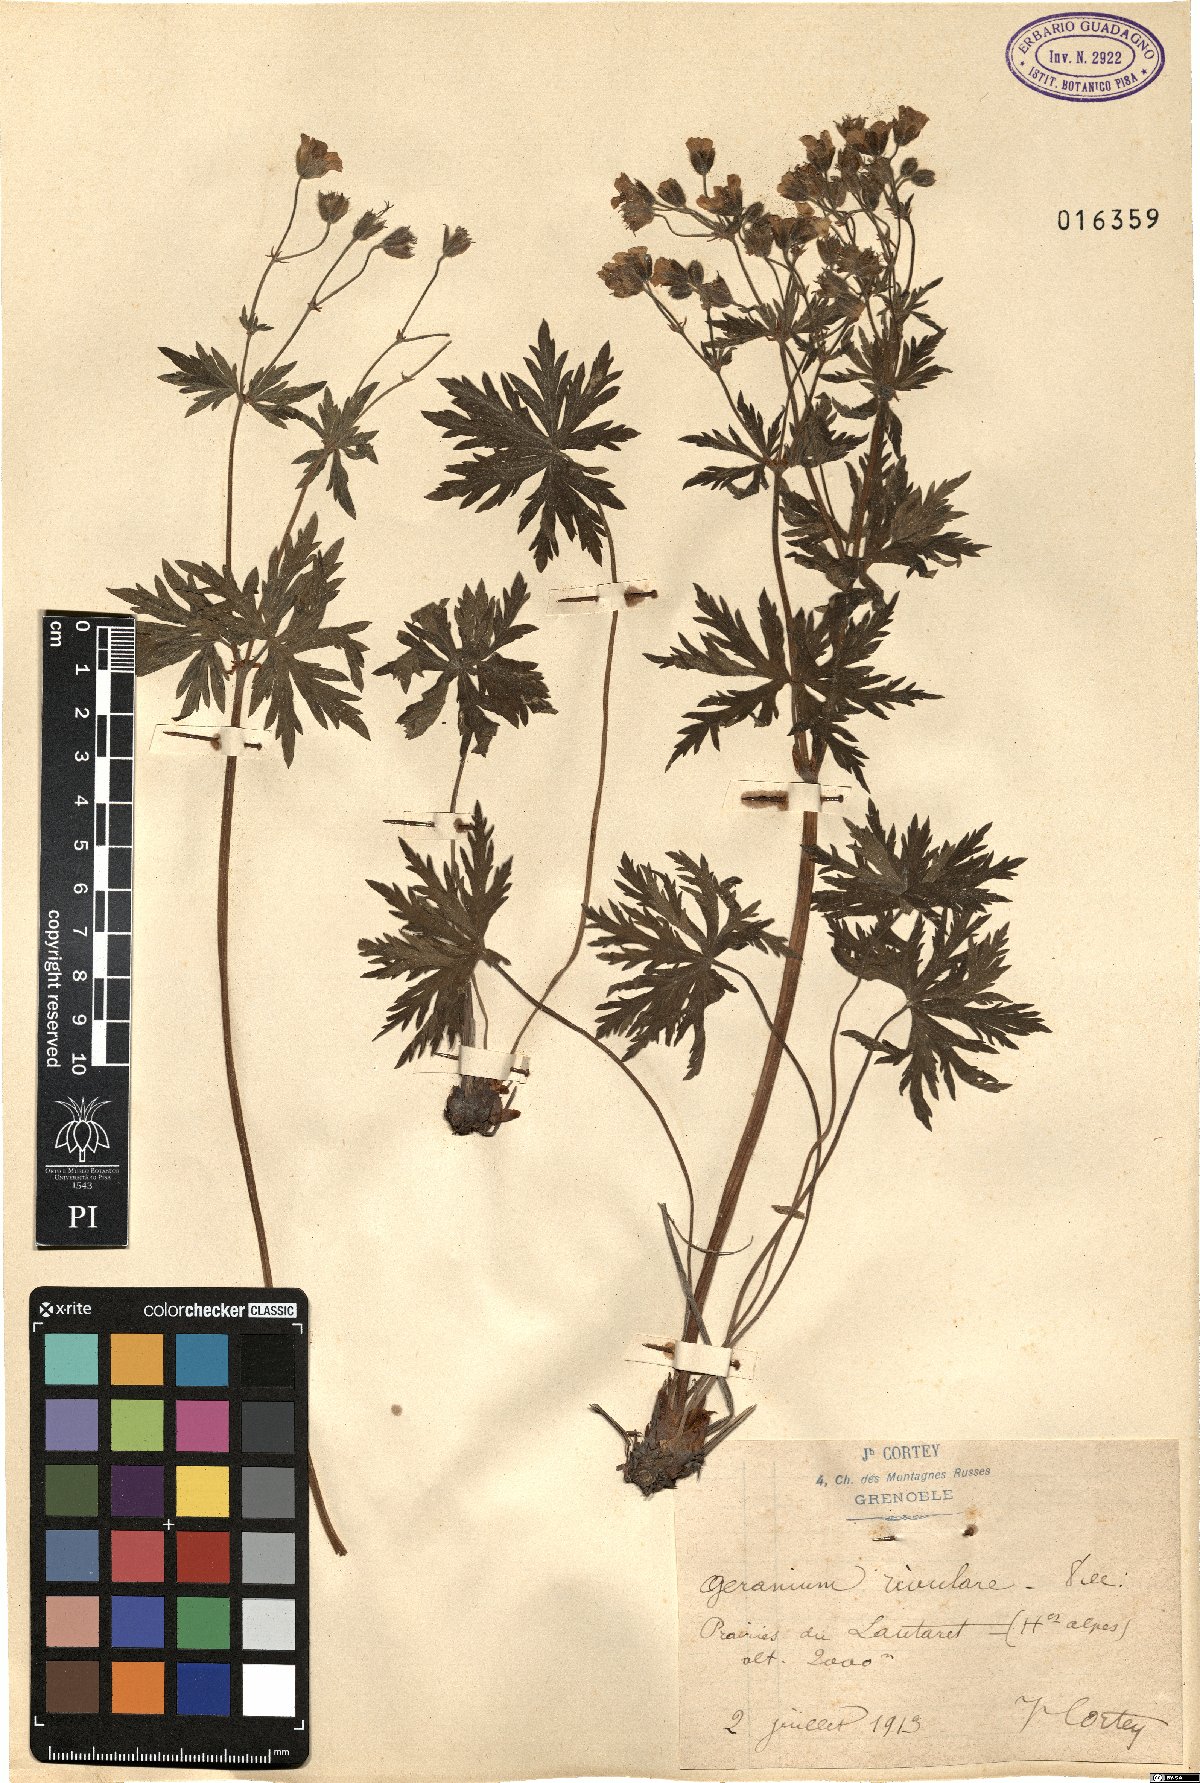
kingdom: Plantae
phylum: Tracheophyta
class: Magnoliopsida
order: Geraniales
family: Geraniaceae
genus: Geranium
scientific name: Geranium rivulare
